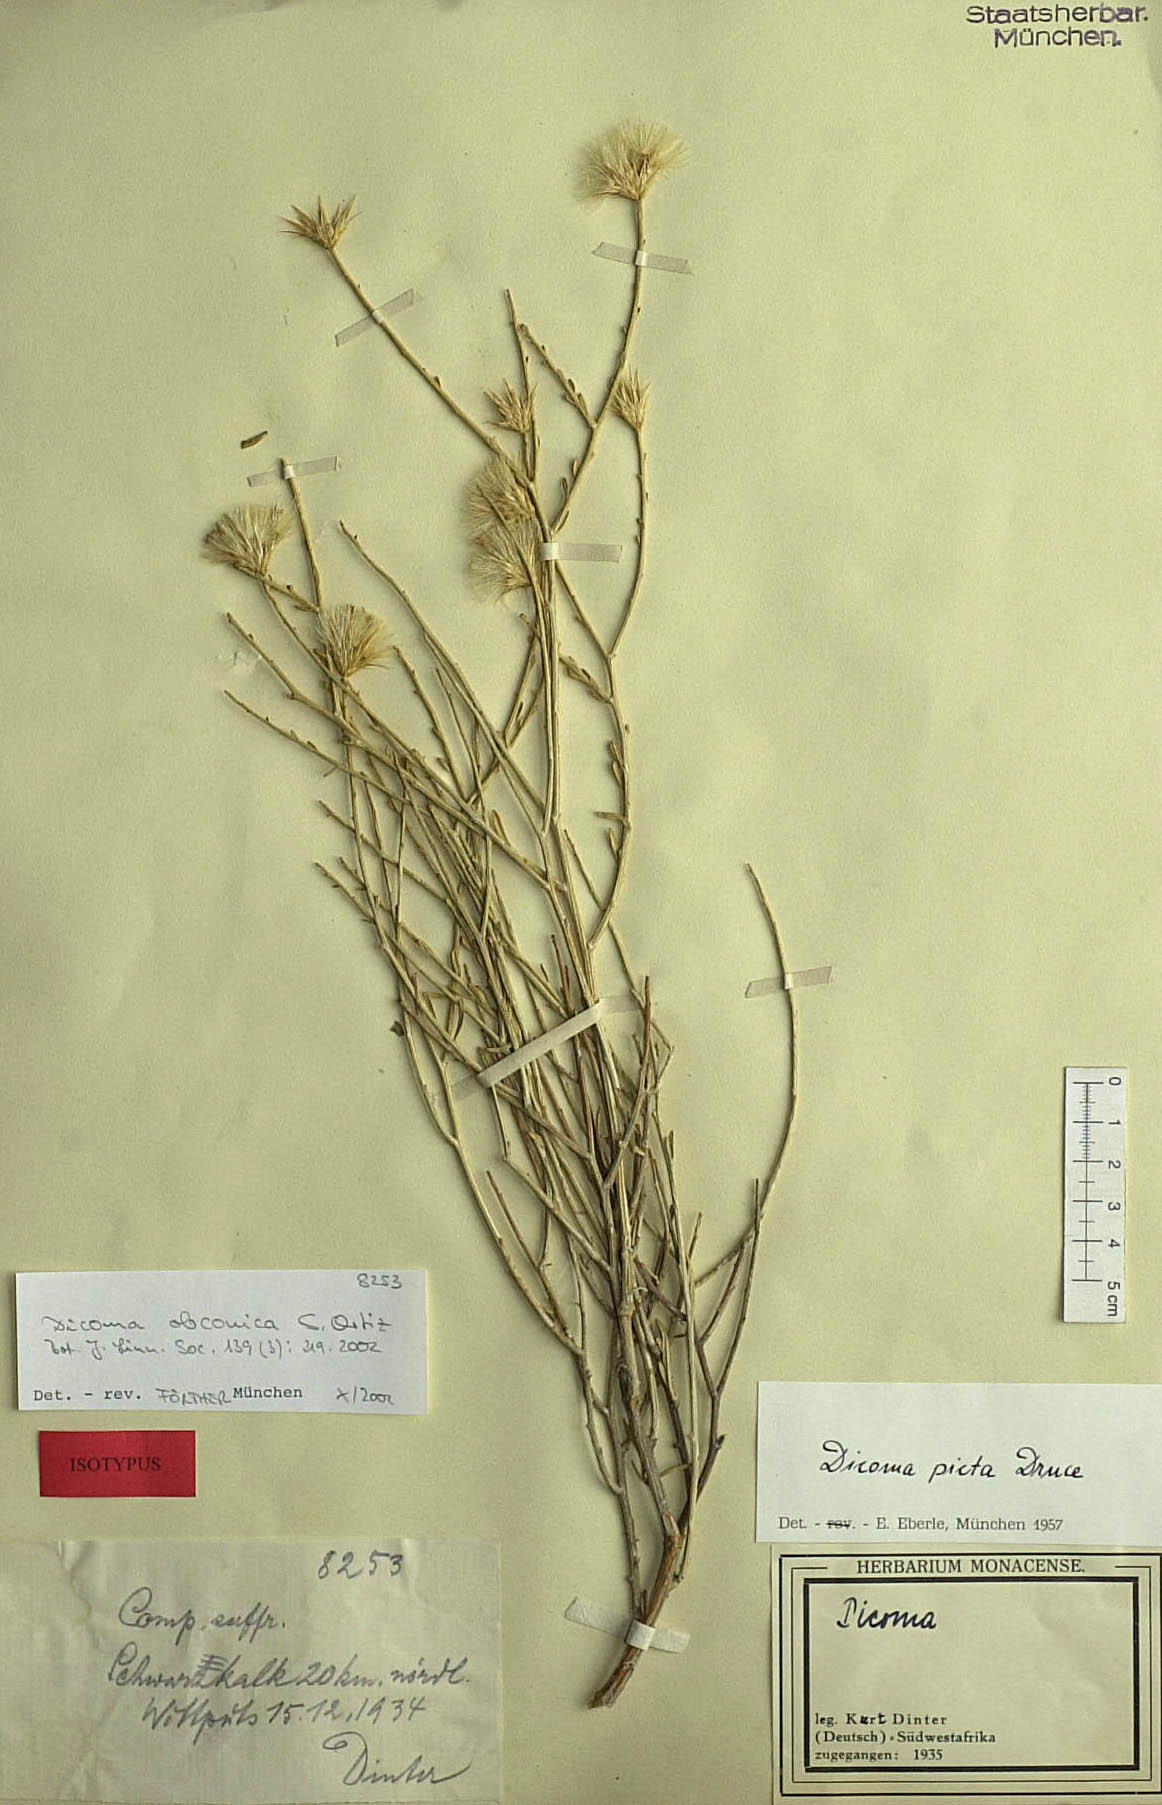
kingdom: Plantae
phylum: Tracheophyta
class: Magnoliopsida
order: Asterales
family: Asteraceae
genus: Dicoma
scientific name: Dicoma obconica
